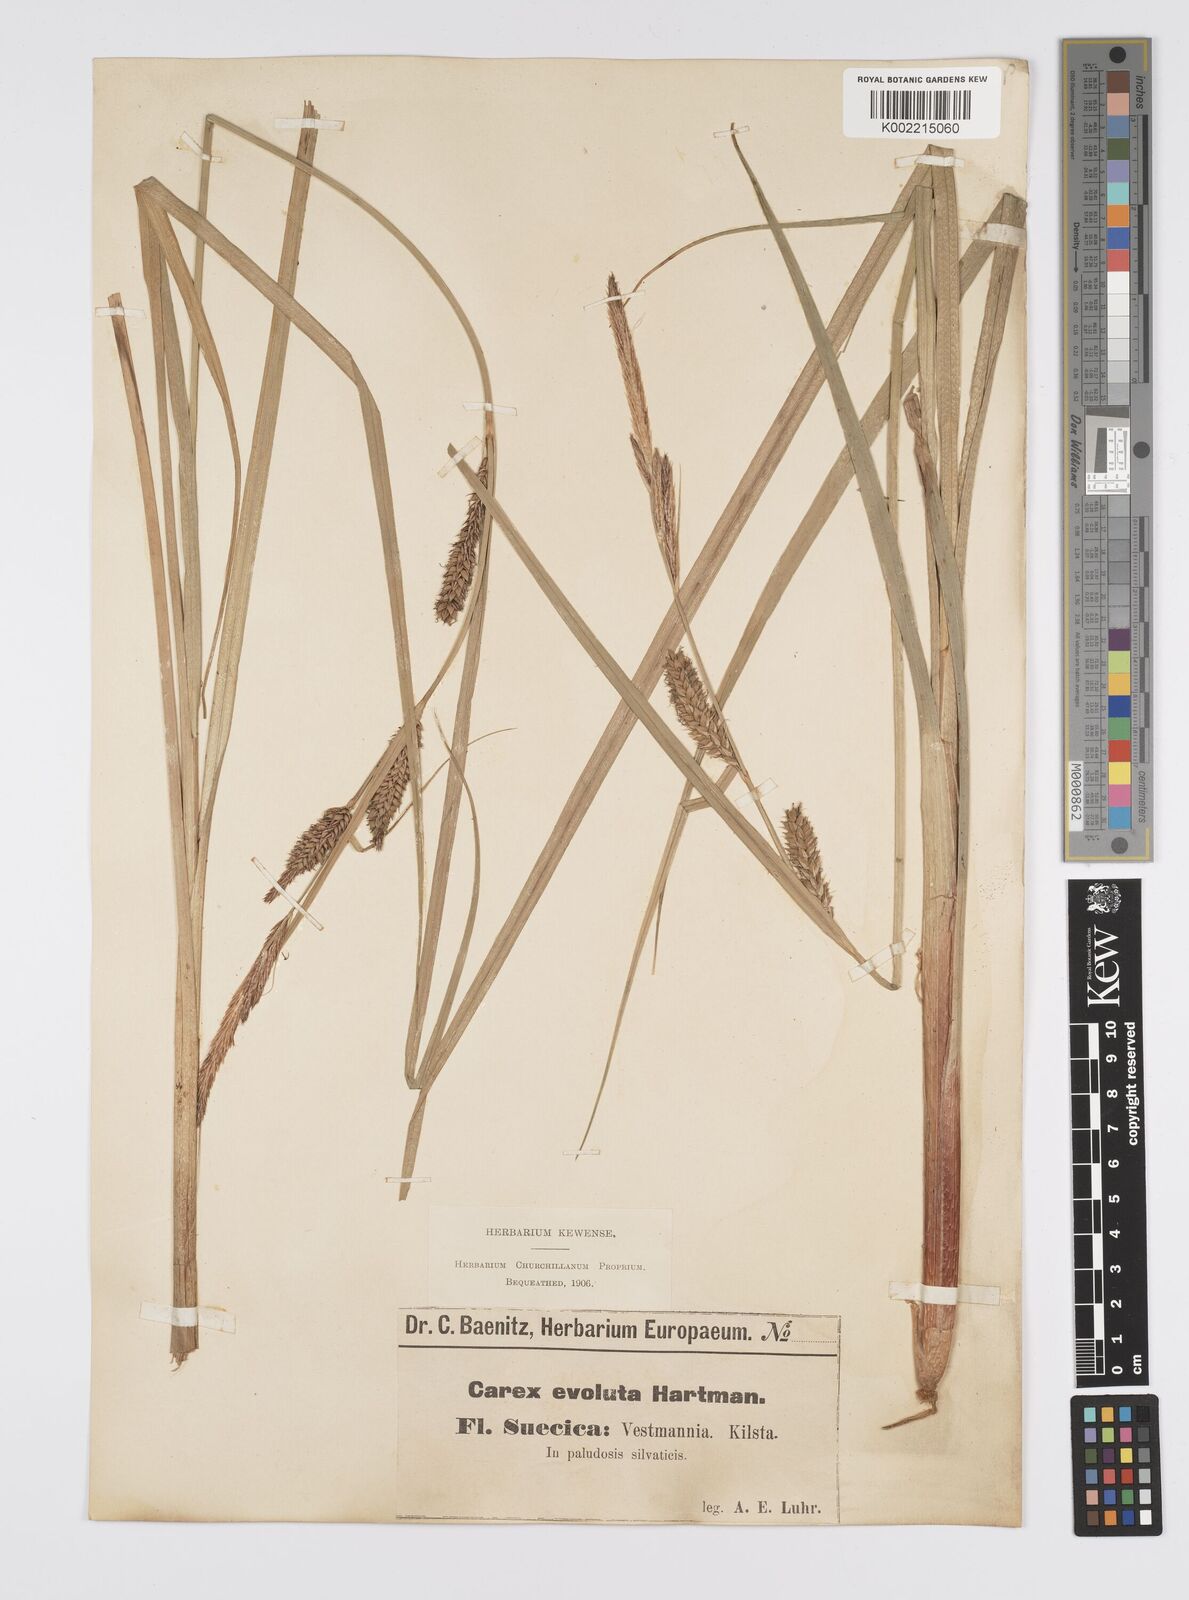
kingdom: Plantae
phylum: Tracheophyta
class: Liliopsida
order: Poales
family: Cyperaceae
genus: Carex
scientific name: Carex evoluta
